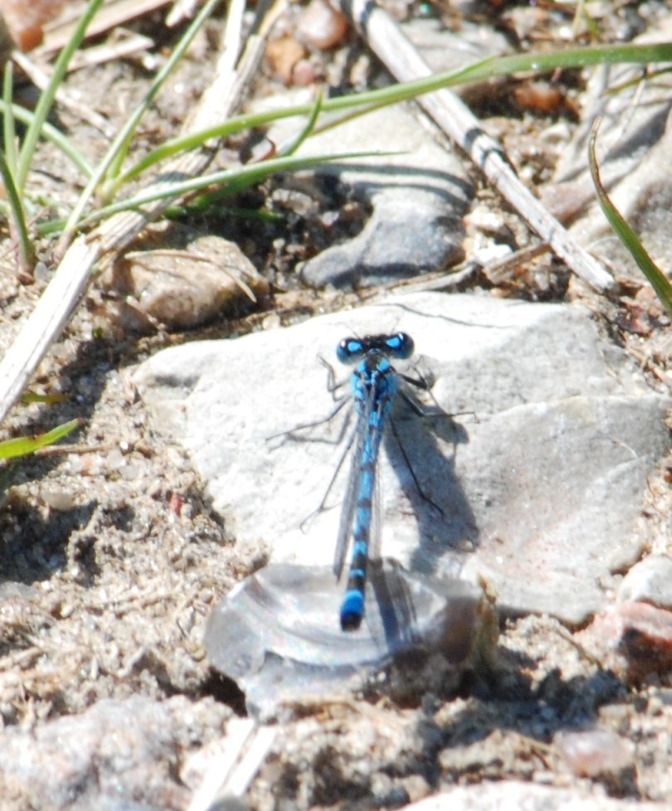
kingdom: Animalia
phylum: Arthropoda
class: Insecta
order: Odonata
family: Coenagrionidae
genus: Enallagma
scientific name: Enallagma cyathigerum
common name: Almindelig vandnymfe
